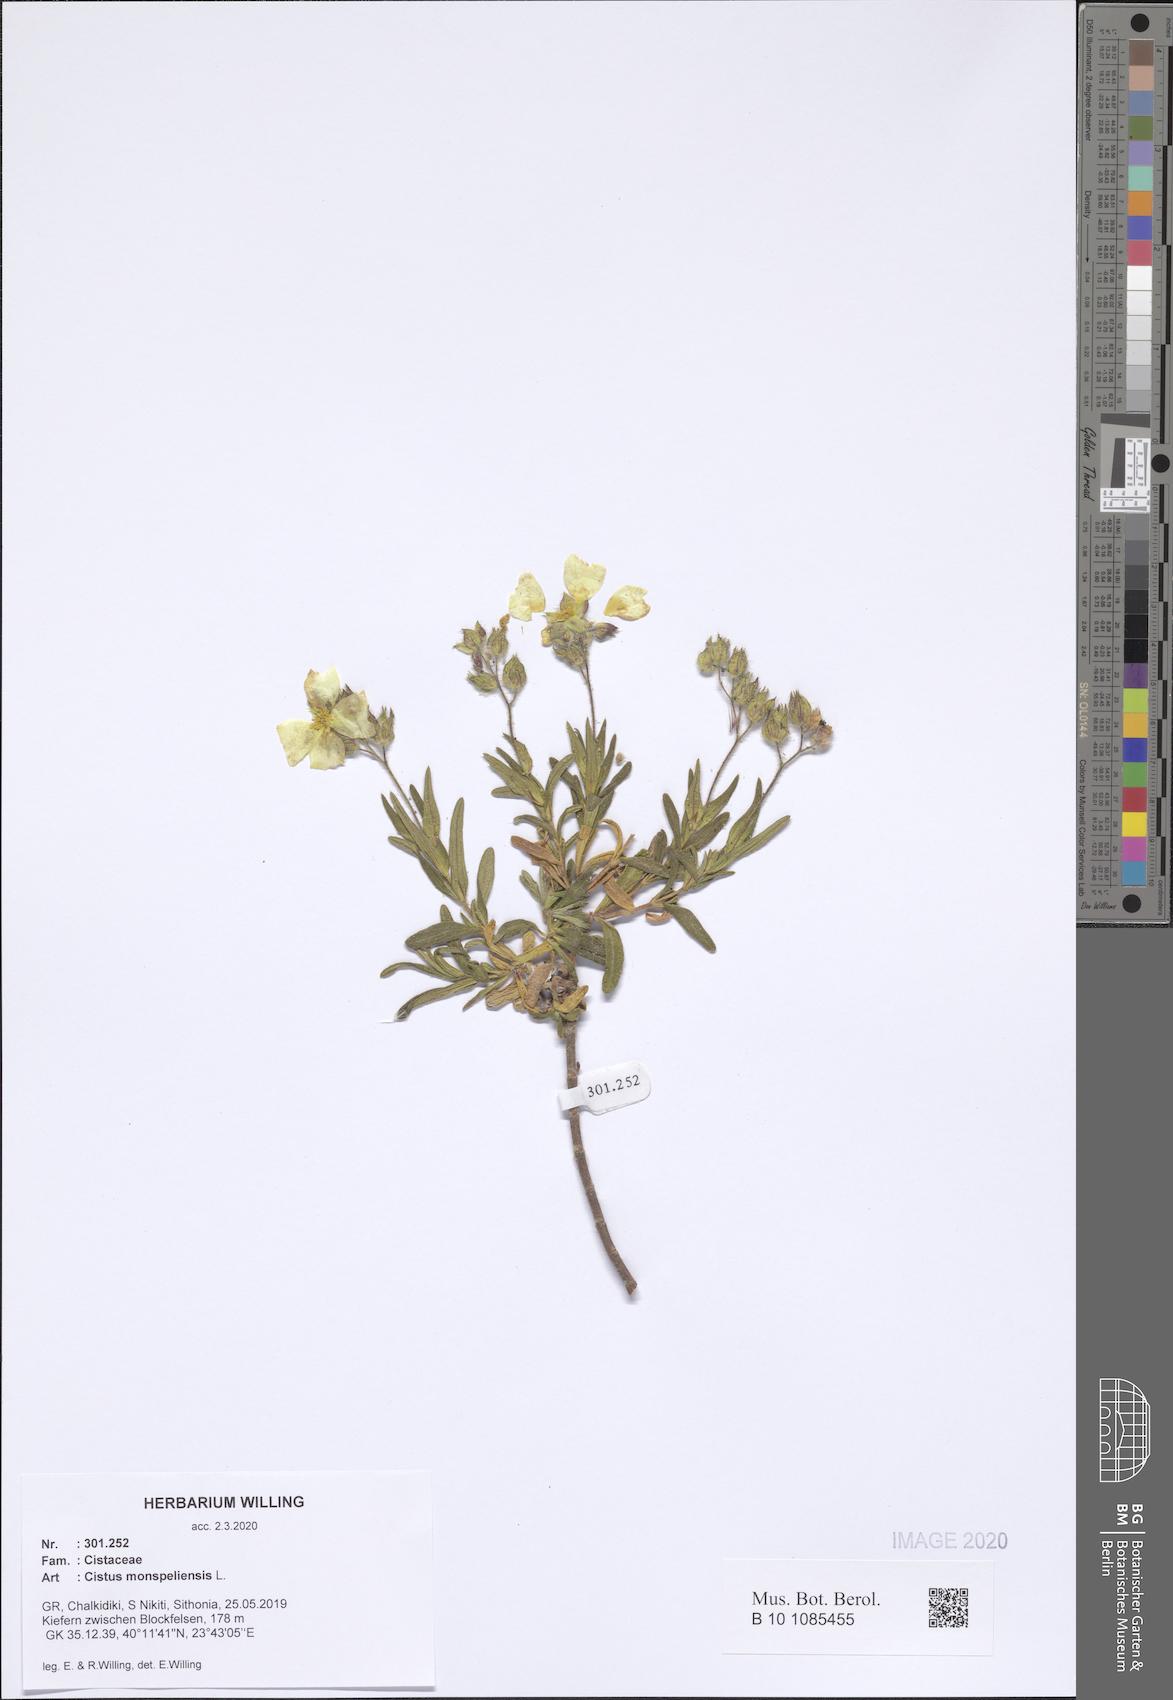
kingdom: Plantae
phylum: Tracheophyta
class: Magnoliopsida
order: Malvales
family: Cistaceae
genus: Cistus
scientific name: Cistus monspeliensis
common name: Montpelier cistus
